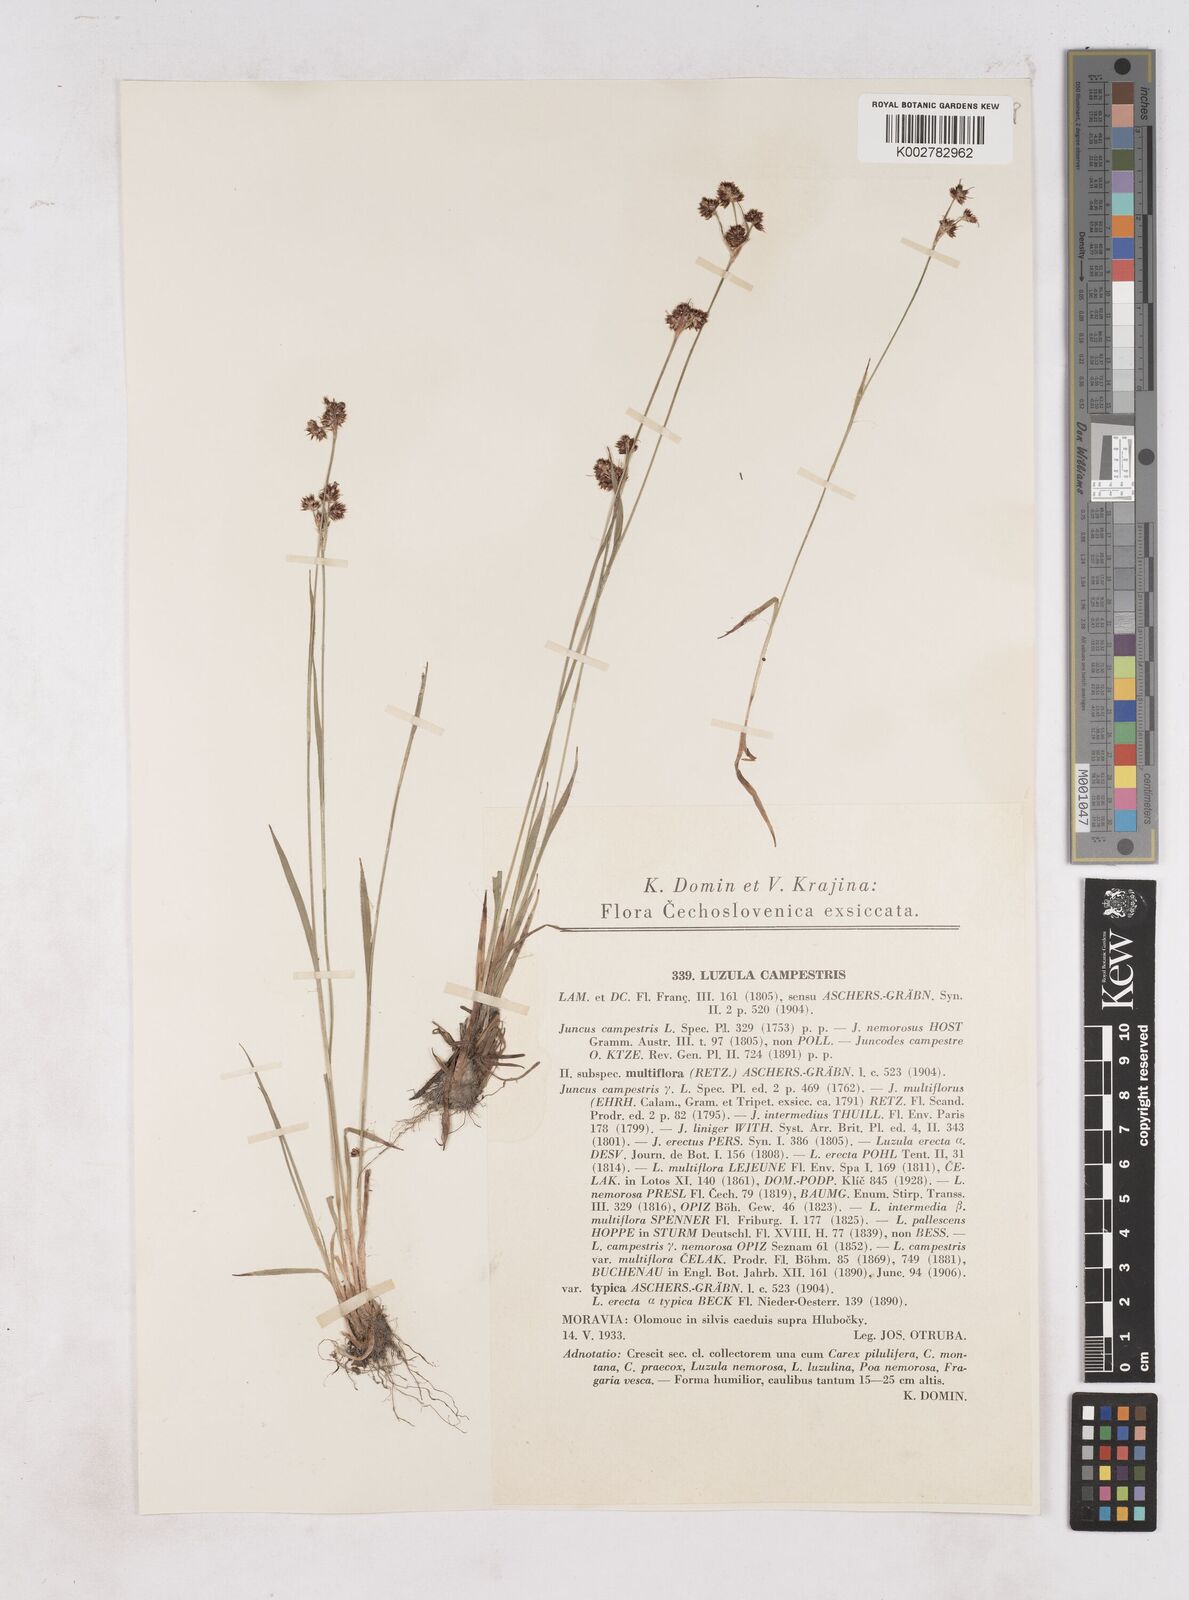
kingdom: Plantae
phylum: Tracheophyta
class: Liliopsida
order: Poales
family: Juncaceae
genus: Luzula
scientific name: Luzula campestris
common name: Field wood-rush
